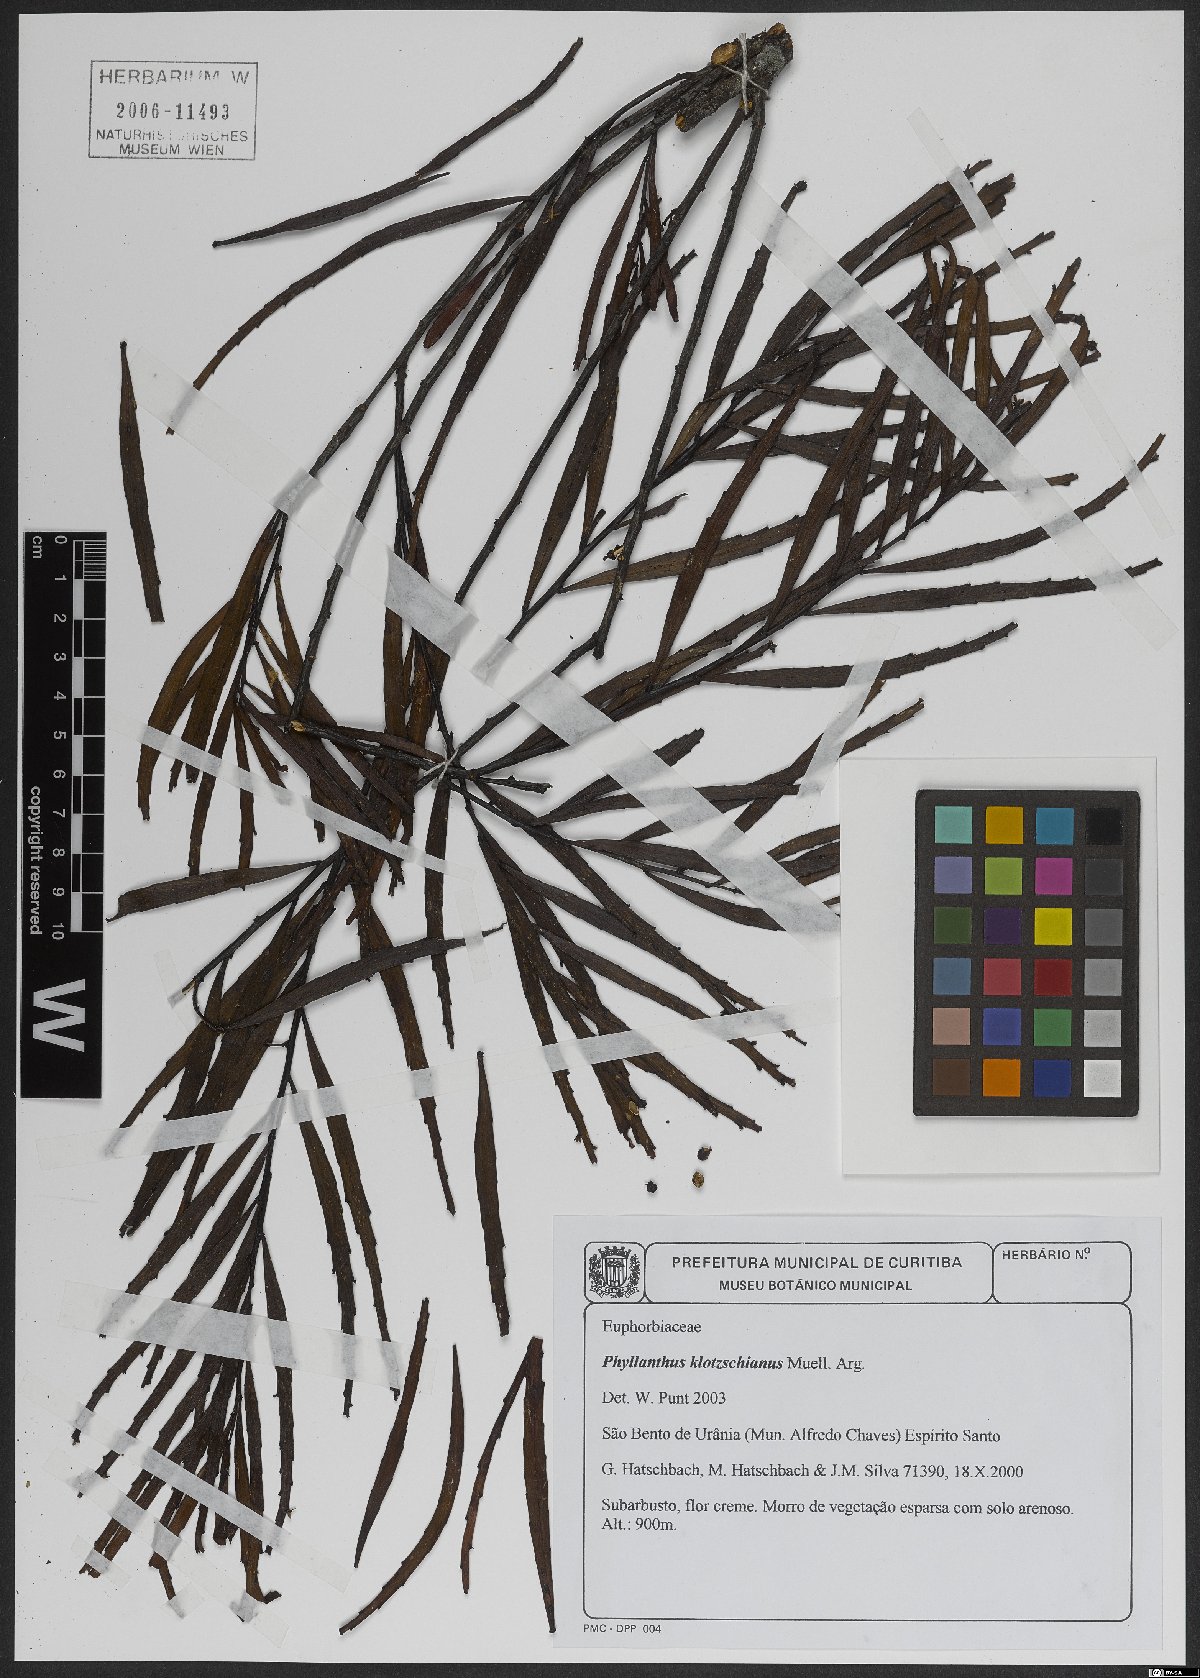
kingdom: Plantae
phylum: Tracheophyta
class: Magnoliopsida
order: Malpighiales
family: Phyllanthaceae
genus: Phyllanthus
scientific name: Phyllanthus robustus
